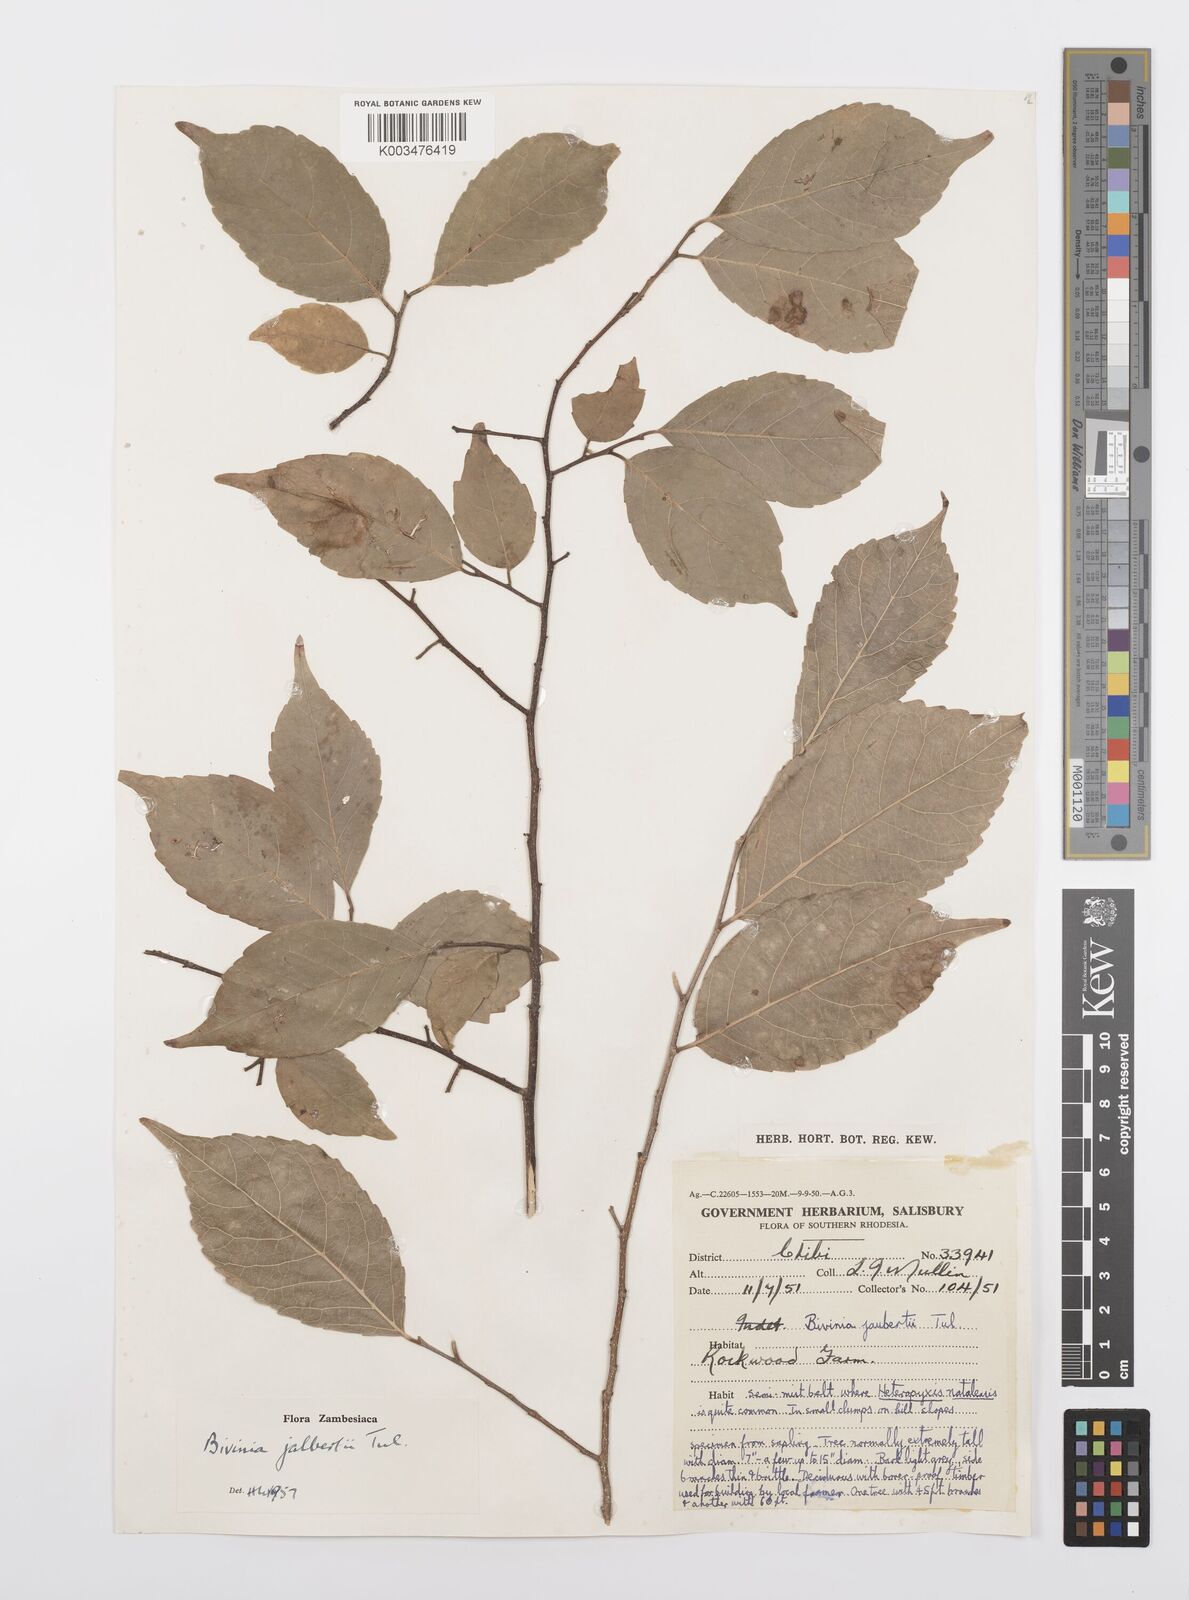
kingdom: Plantae
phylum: Tracheophyta
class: Magnoliopsida
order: Malpighiales
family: Salicaceae
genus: Bivinia
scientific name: Bivinia jalbertii
